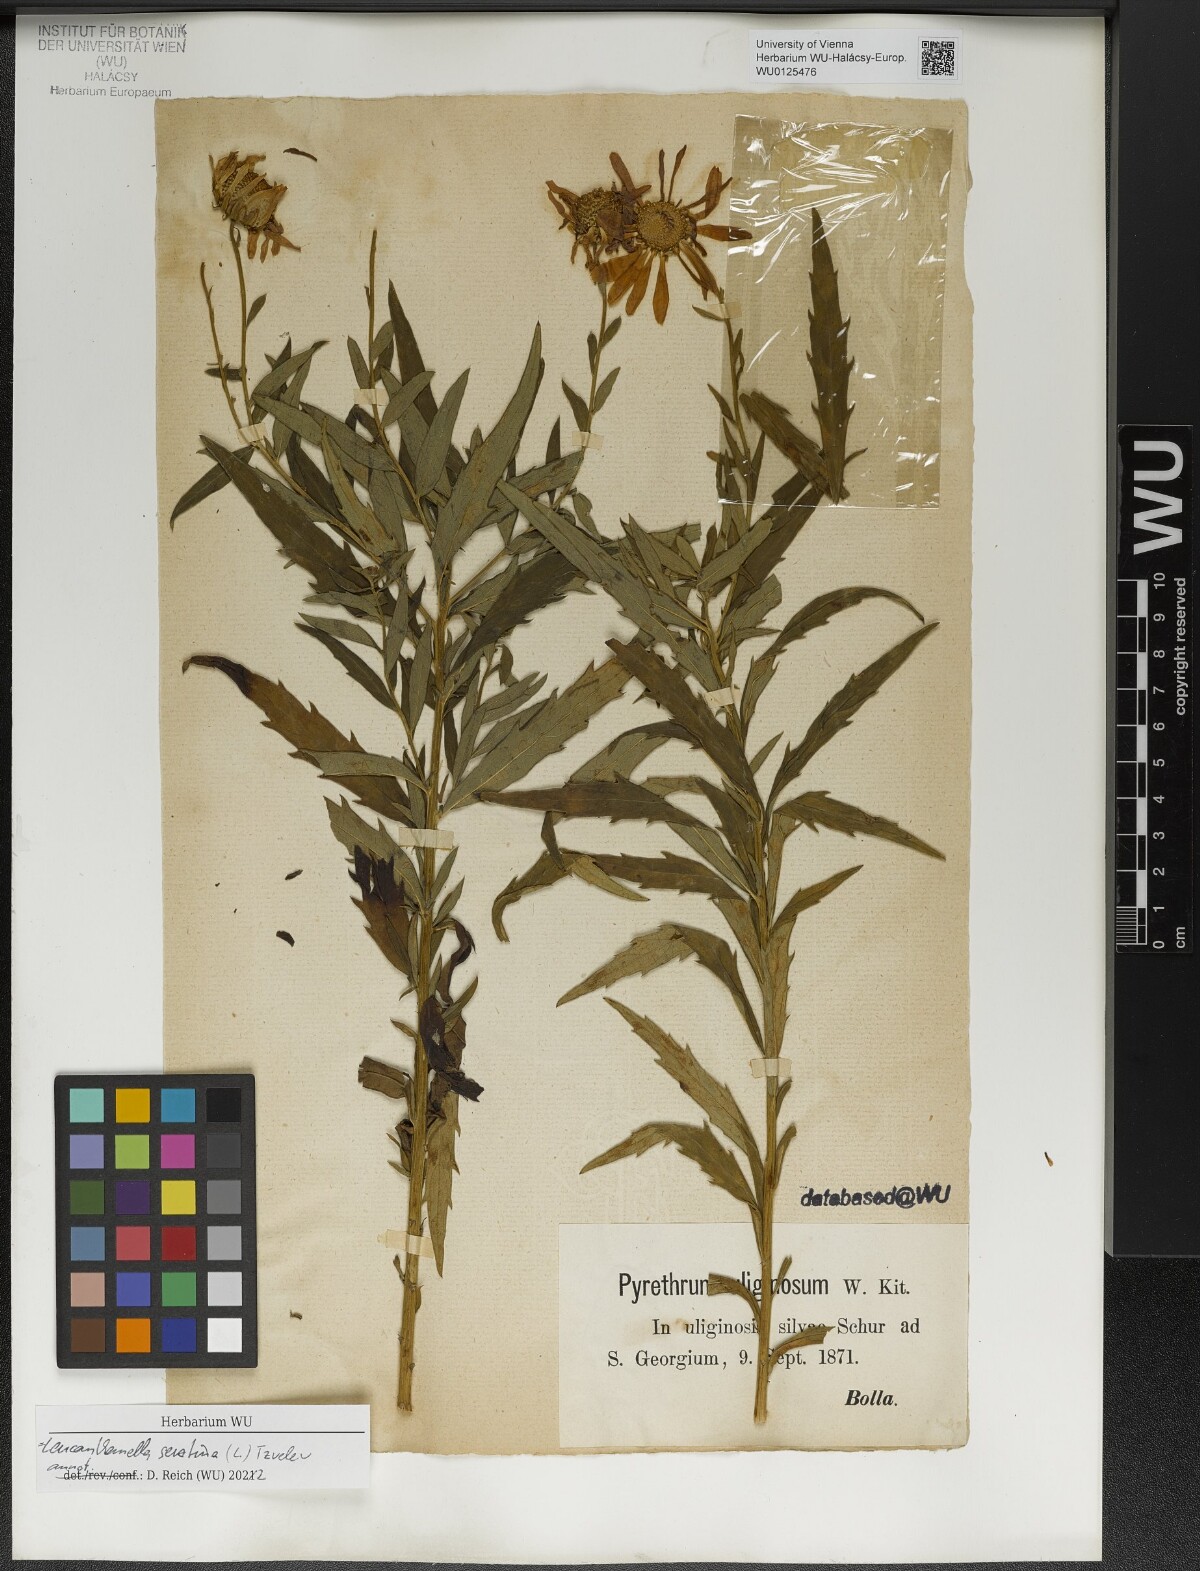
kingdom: Plantae
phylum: Tracheophyta
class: Magnoliopsida
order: Asterales
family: Asteraceae
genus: Leucanthemella
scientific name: Leucanthemella serotina
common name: Autumn oxeye
